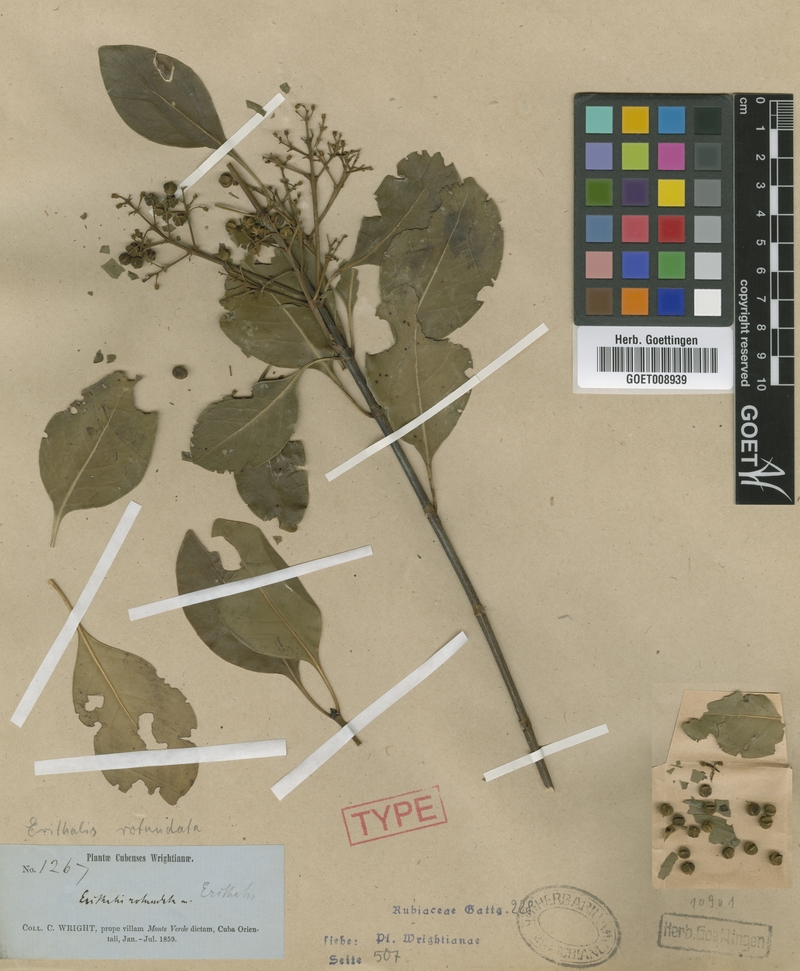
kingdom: Plantae
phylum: Tracheophyta
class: Magnoliopsida
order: Gentianales
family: Rubiaceae
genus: Erithalis
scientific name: Erithalis odorifera
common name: Scented blacktorch
